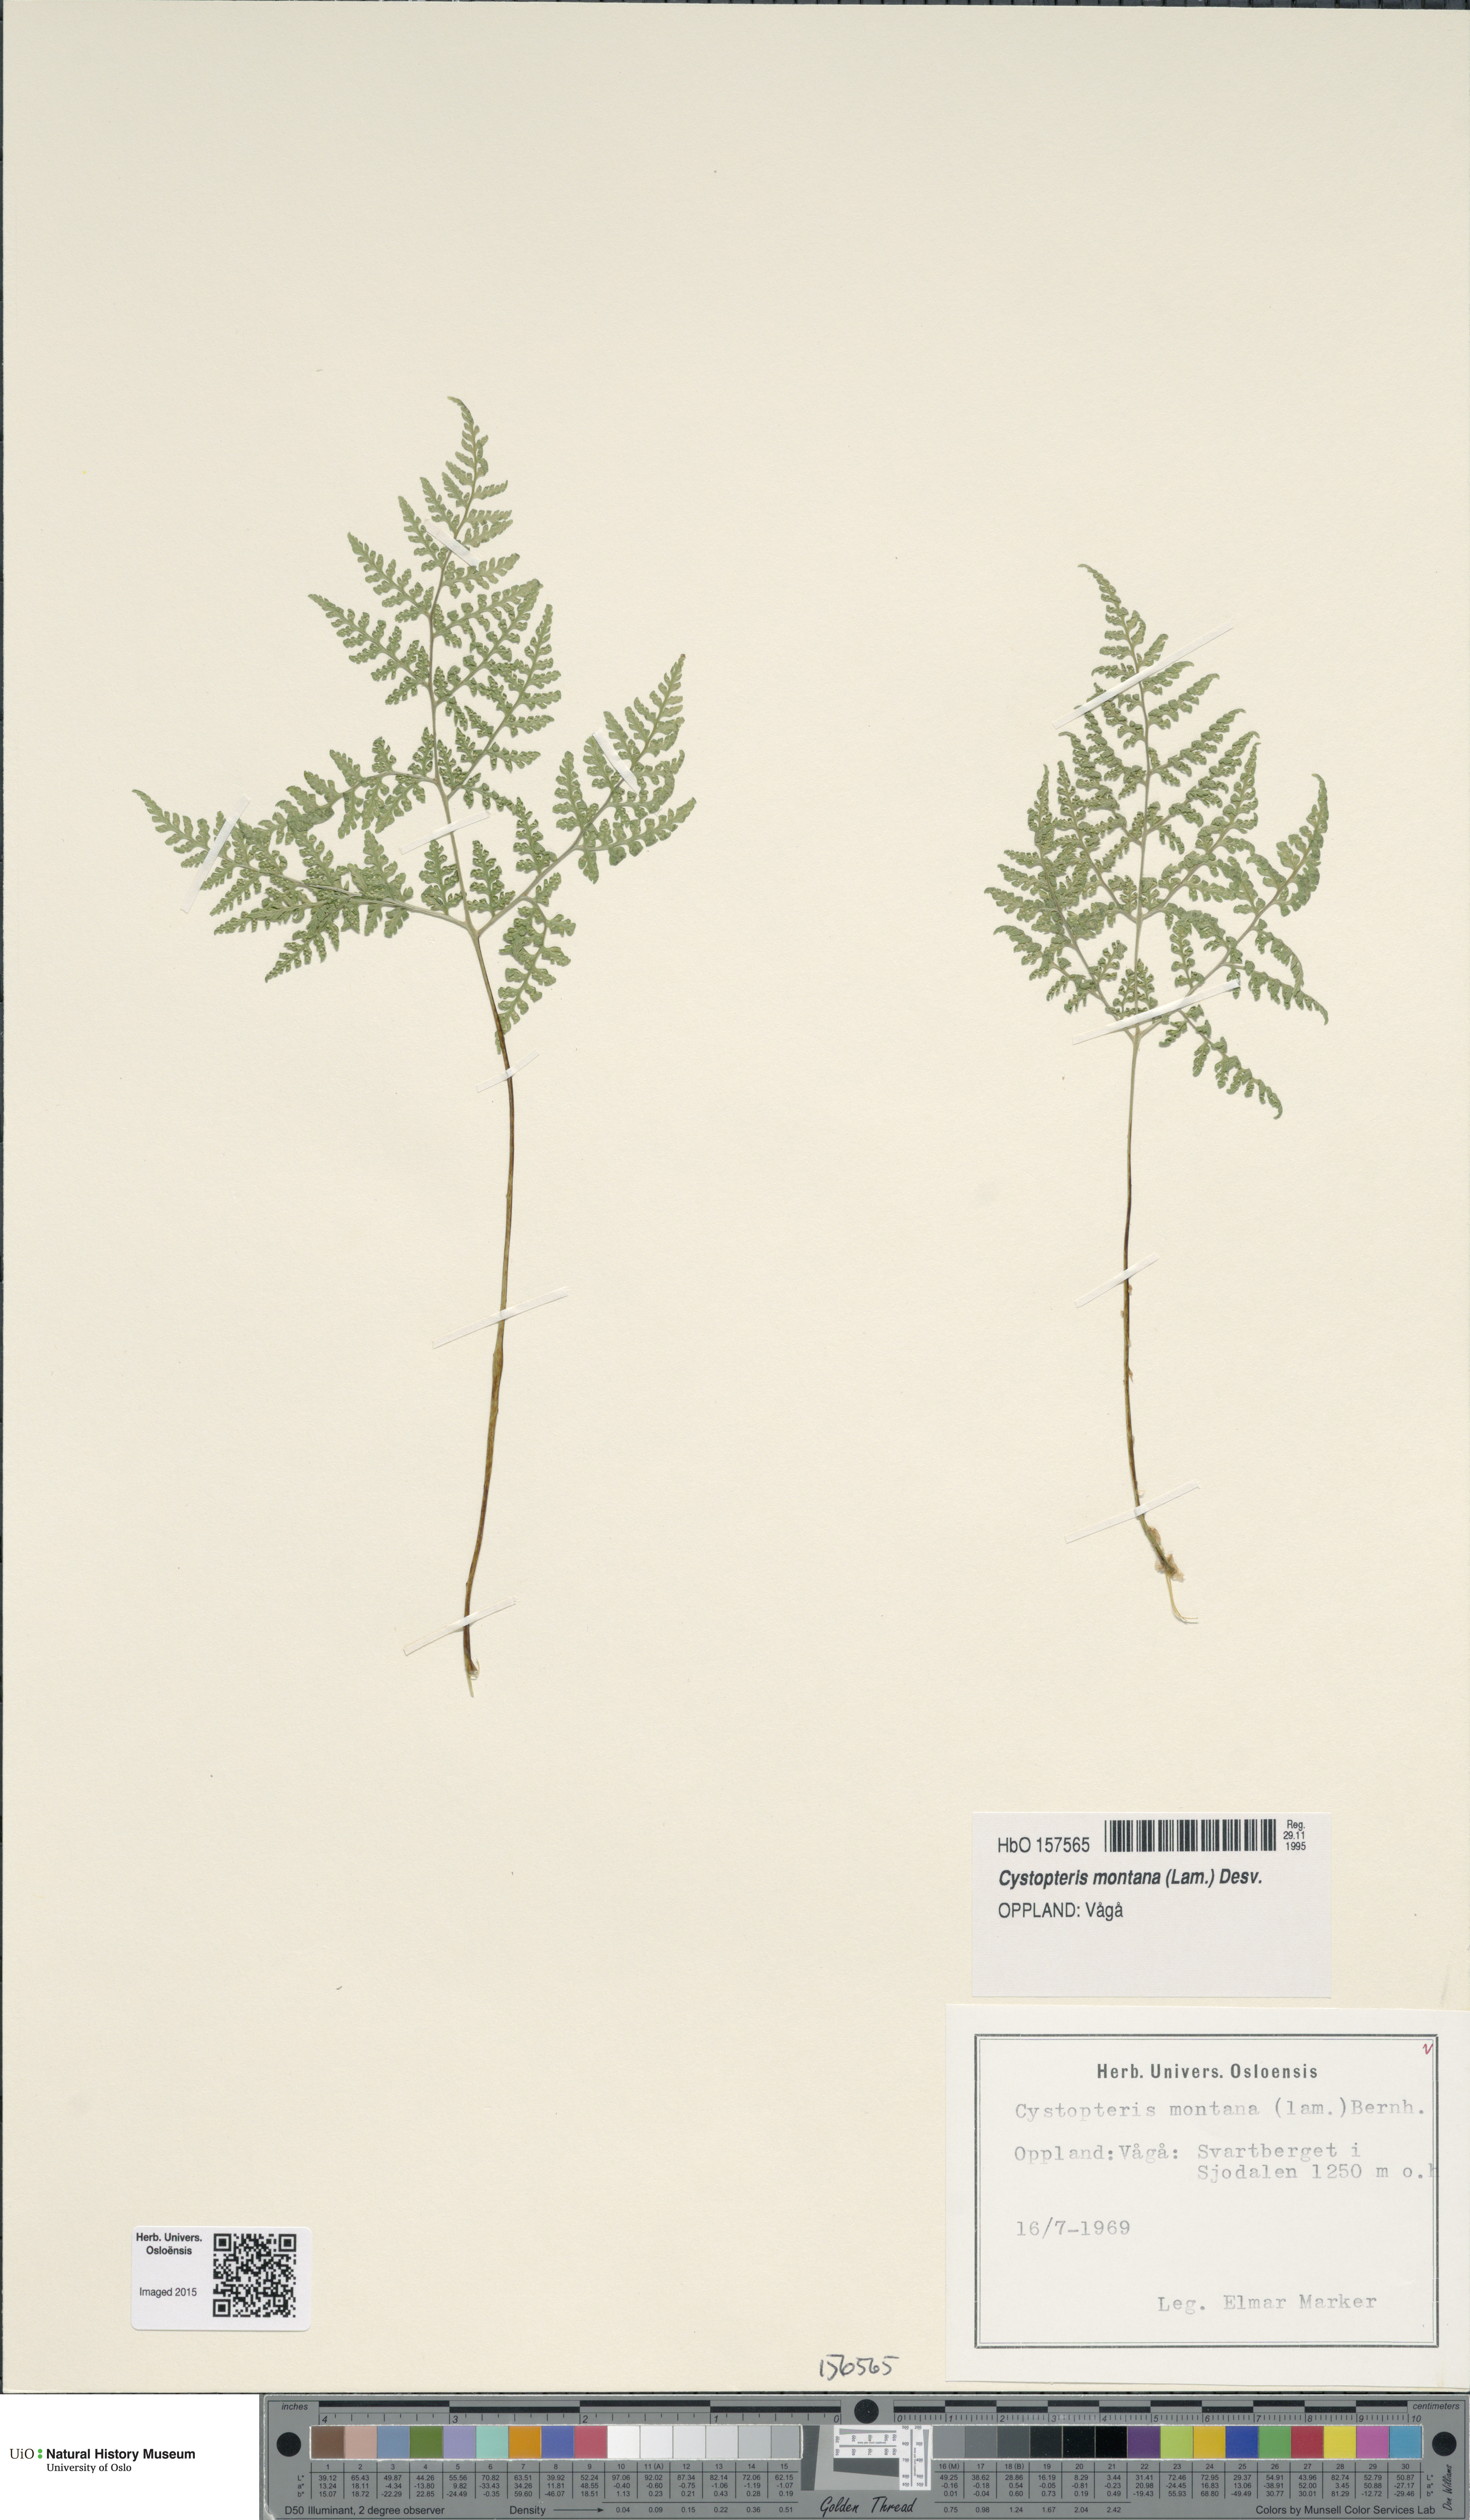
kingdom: Plantae
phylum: Tracheophyta
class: Polypodiopsida
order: Polypodiales
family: Cystopteridaceae
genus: Cystopteris
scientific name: Cystopteris montana
